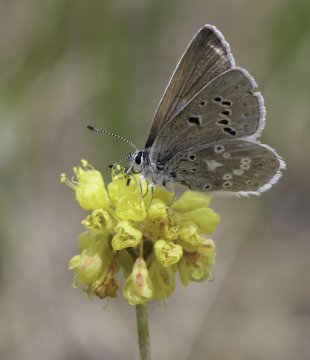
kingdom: Animalia
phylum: Arthropoda
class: Insecta
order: Lepidoptera
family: Lycaenidae
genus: Icaricia
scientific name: Icaricia icarioides
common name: Boisduval's Blue
